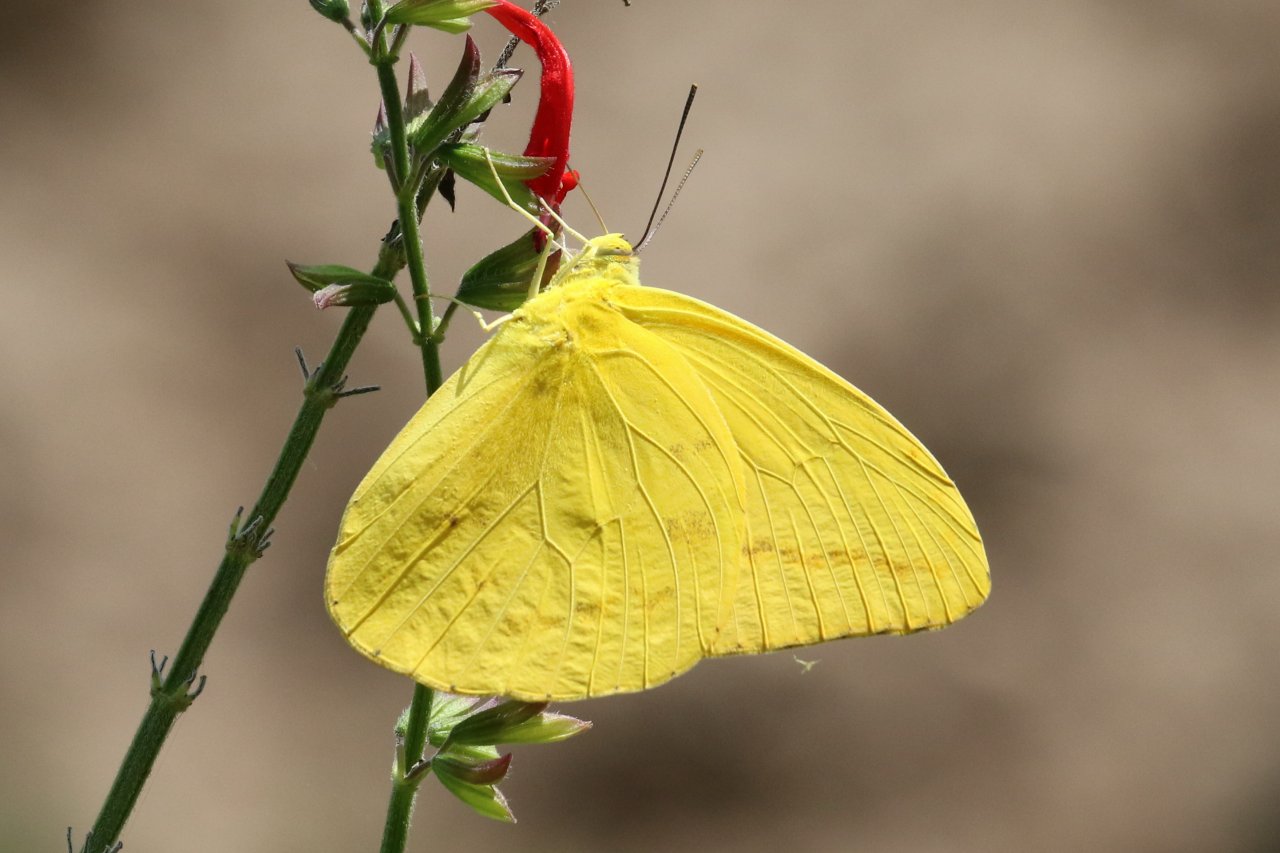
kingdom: Animalia
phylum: Arthropoda
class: Insecta
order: Lepidoptera
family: Pieridae
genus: Phoebis
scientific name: Phoebis agarithe
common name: Large Orange Sulphur
